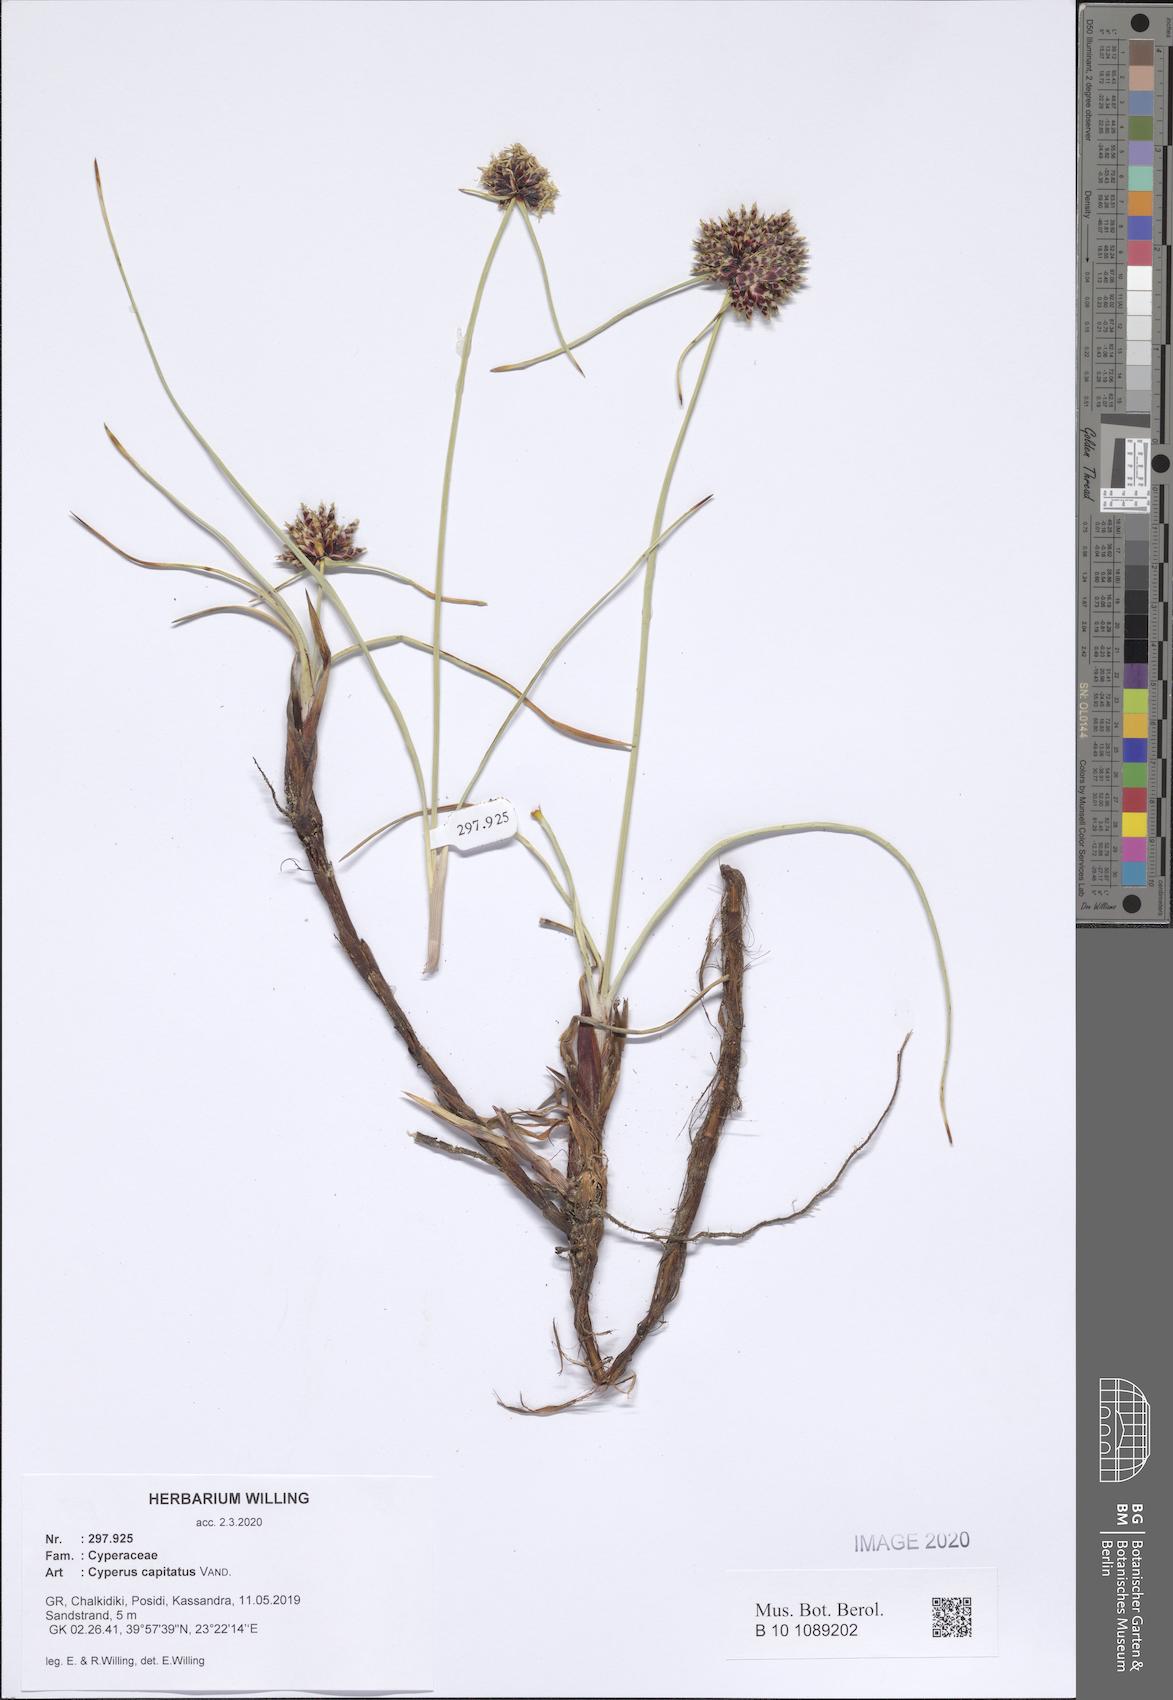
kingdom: Plantae
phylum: Tracheophyta
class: Liliopsida
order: Poales
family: Cyperaceae
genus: Cyperus
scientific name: Cyperus capitatus
